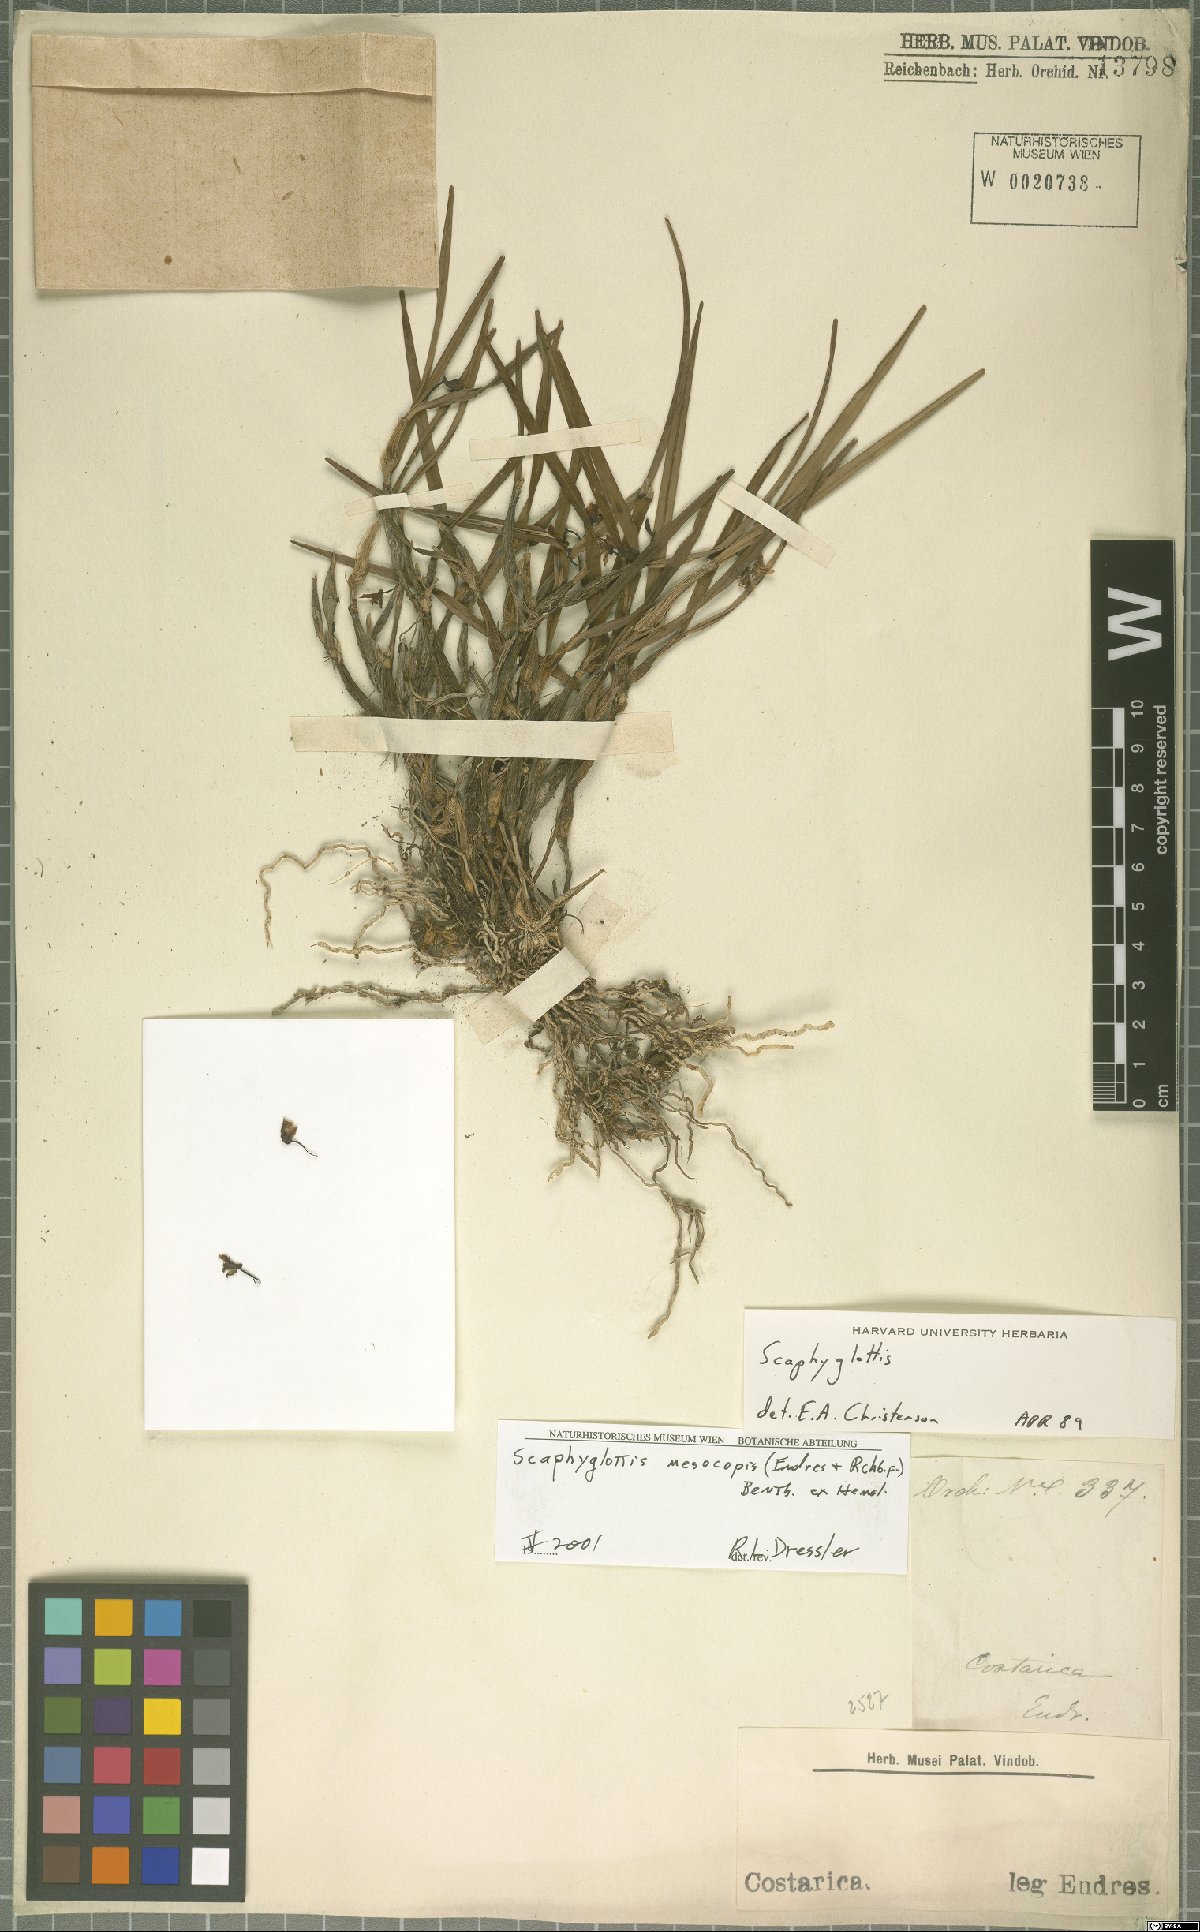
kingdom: Plantae
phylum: Tracheophyta
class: Liliopsida
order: Asparagales
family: Orchidaceae
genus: Scaphyglottis
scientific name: Scaphyglottis mesocopis
